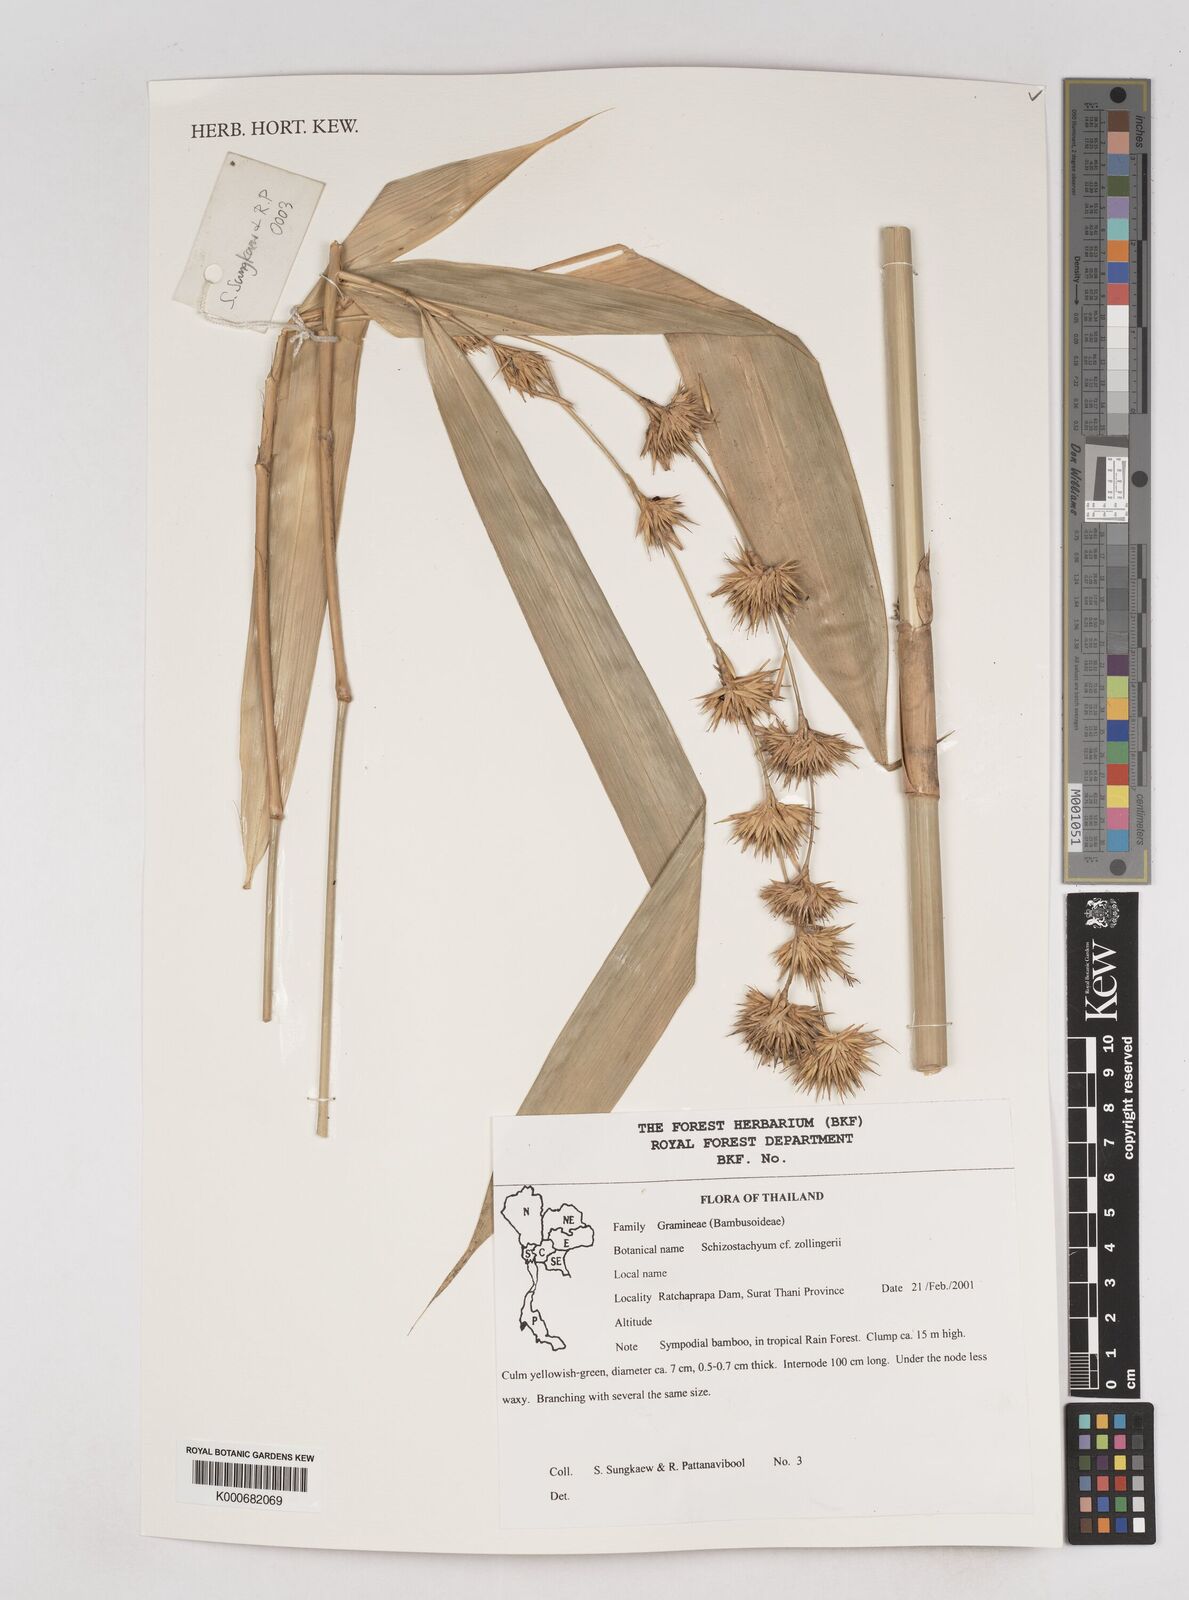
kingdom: Plantae
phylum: Tracheophyta
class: Liliopsida
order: Poales
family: Poaceae
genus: Schizostachyum
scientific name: Schizostachyum zollingeri
